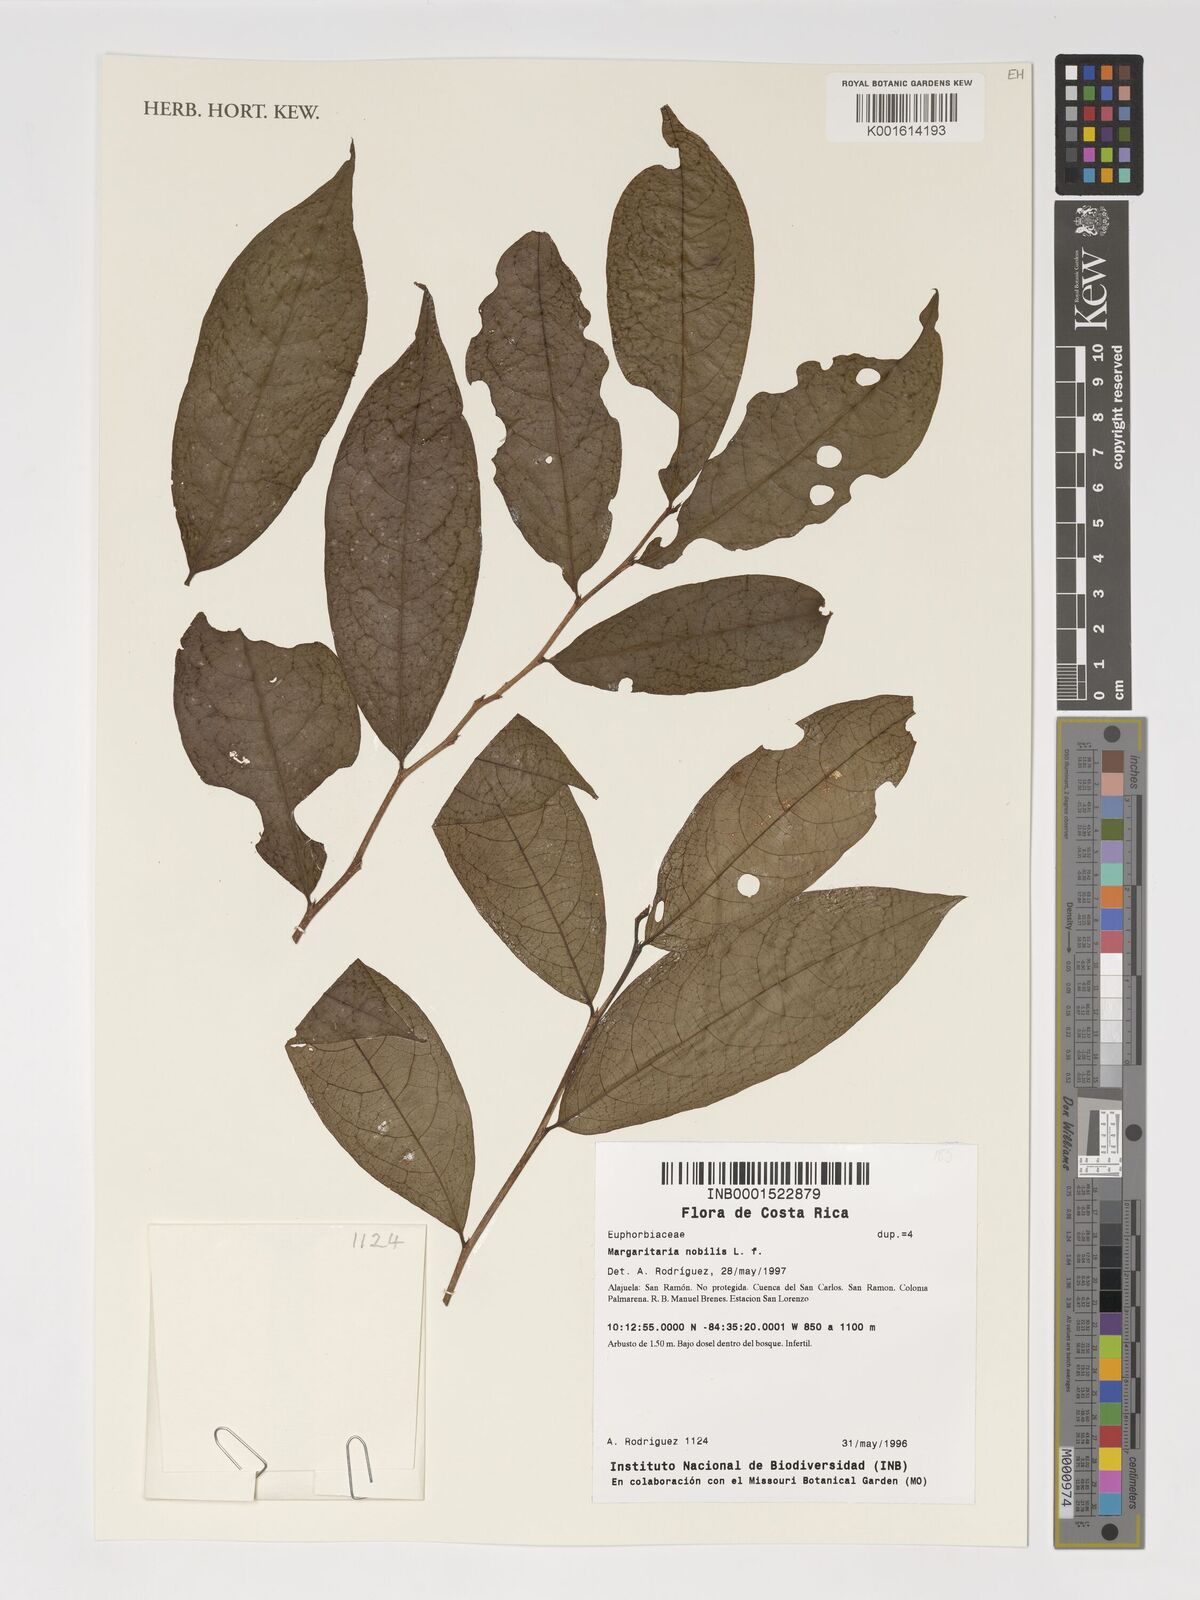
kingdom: Plantae
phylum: Tracheophyta
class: Magnoliopsida
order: Malpighiales
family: Phyllanthaceae
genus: Margaritaria
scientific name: Margaritaria nobilis
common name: Goose berry
